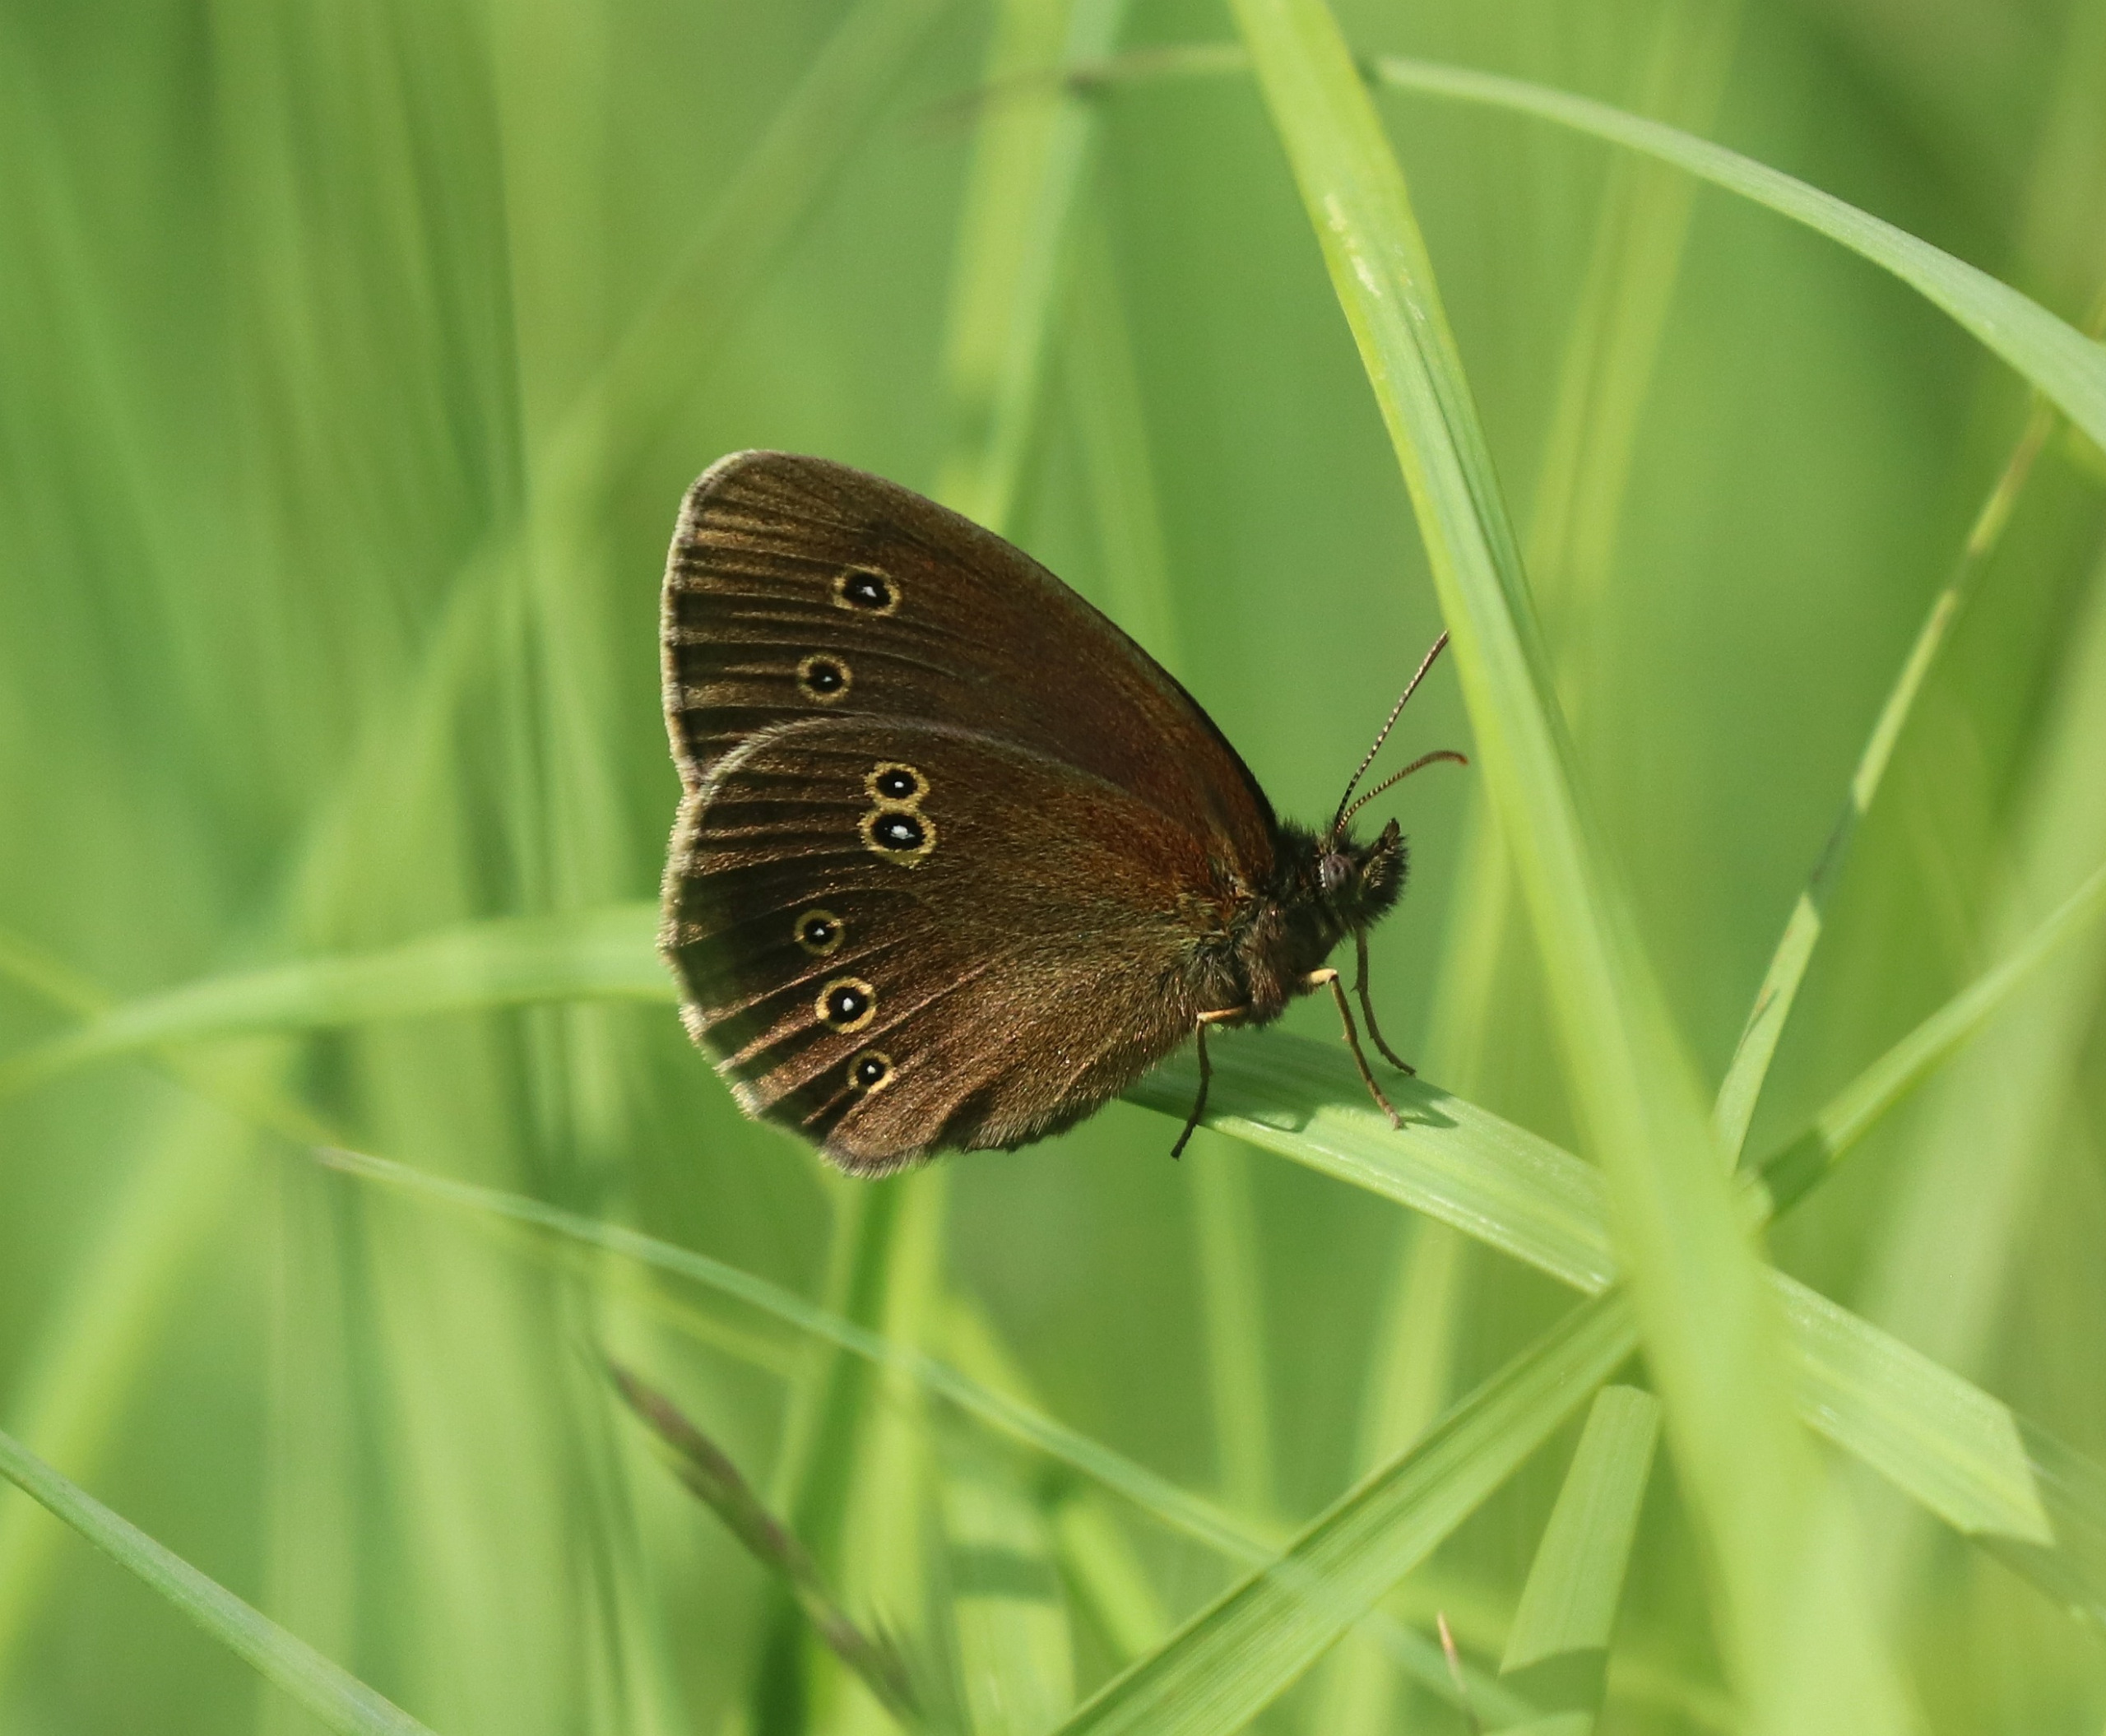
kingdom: Animalia
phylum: Arthropoda
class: Insecta
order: Lepidoptera
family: Nymphalidae
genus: Aphantopus
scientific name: Aphantopus hyperantus
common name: Engrandøje
